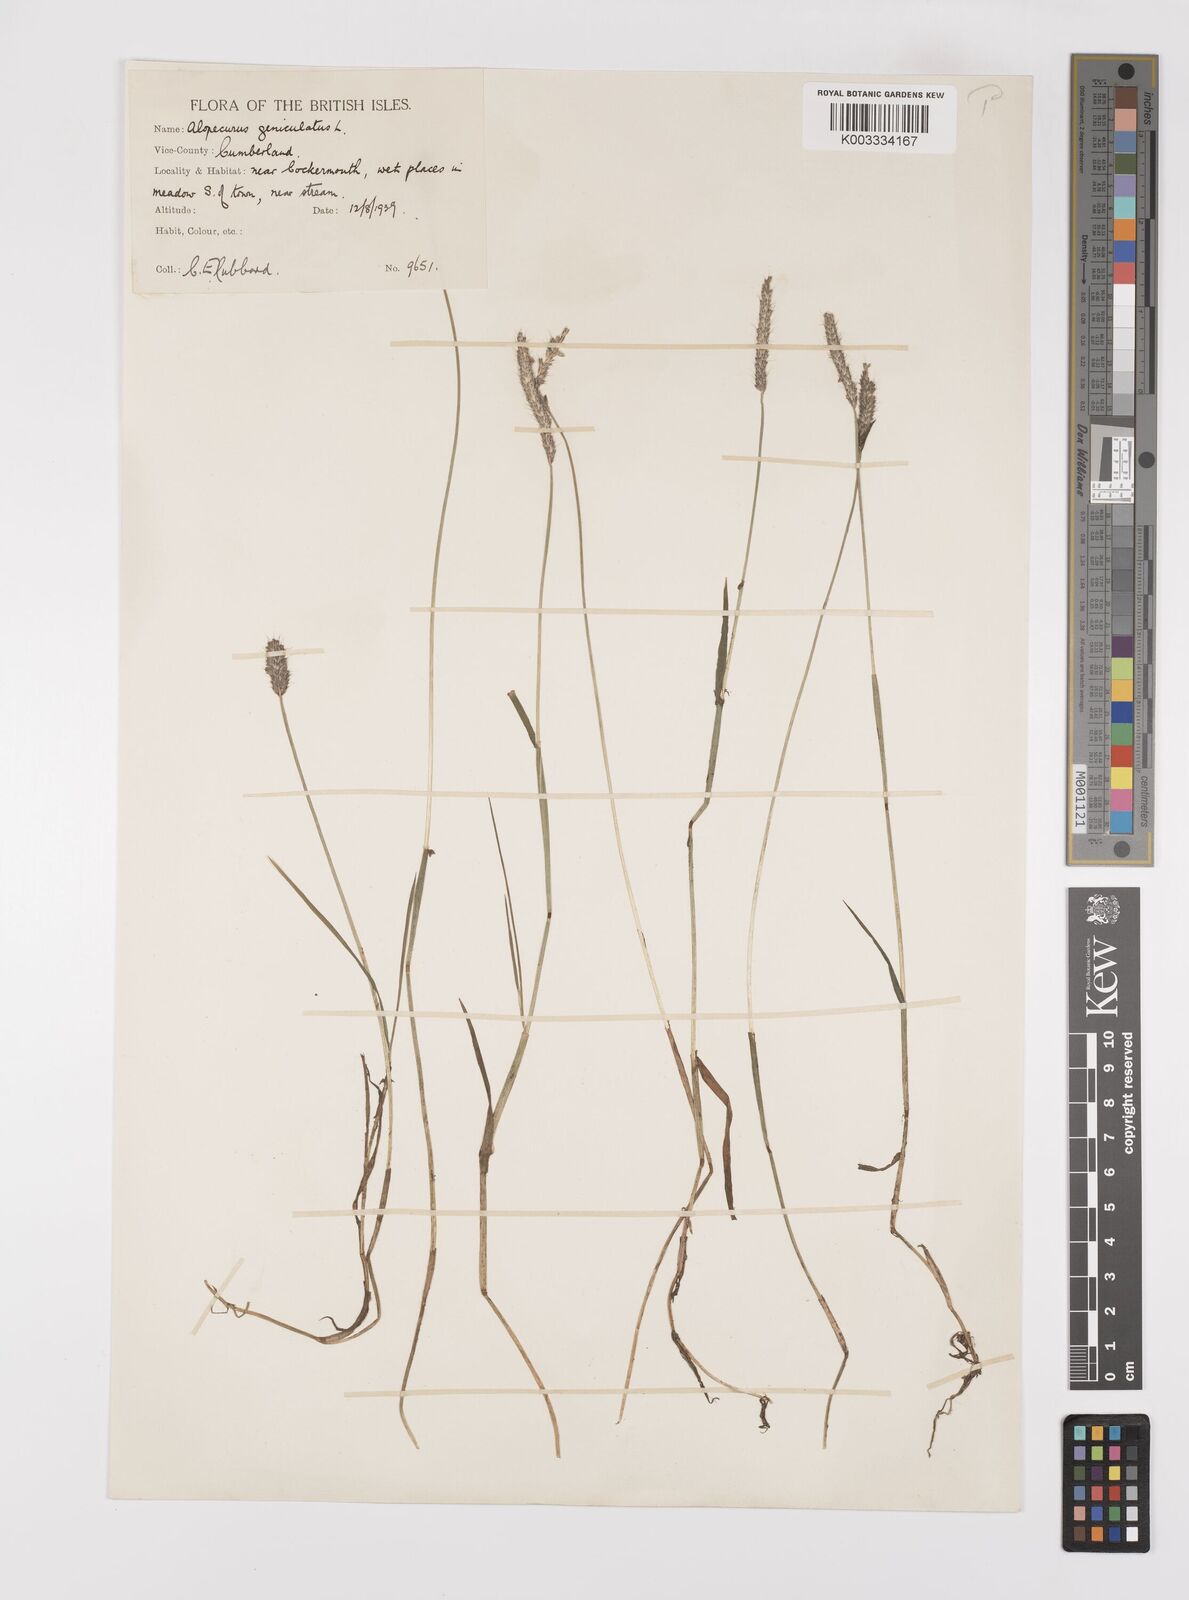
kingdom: Plantae
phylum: Tracheophyta
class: Liliopsida
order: Poales
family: Poaceae
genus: Alopecurus
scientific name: Alopecurus geniculatus
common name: Water foxtail
